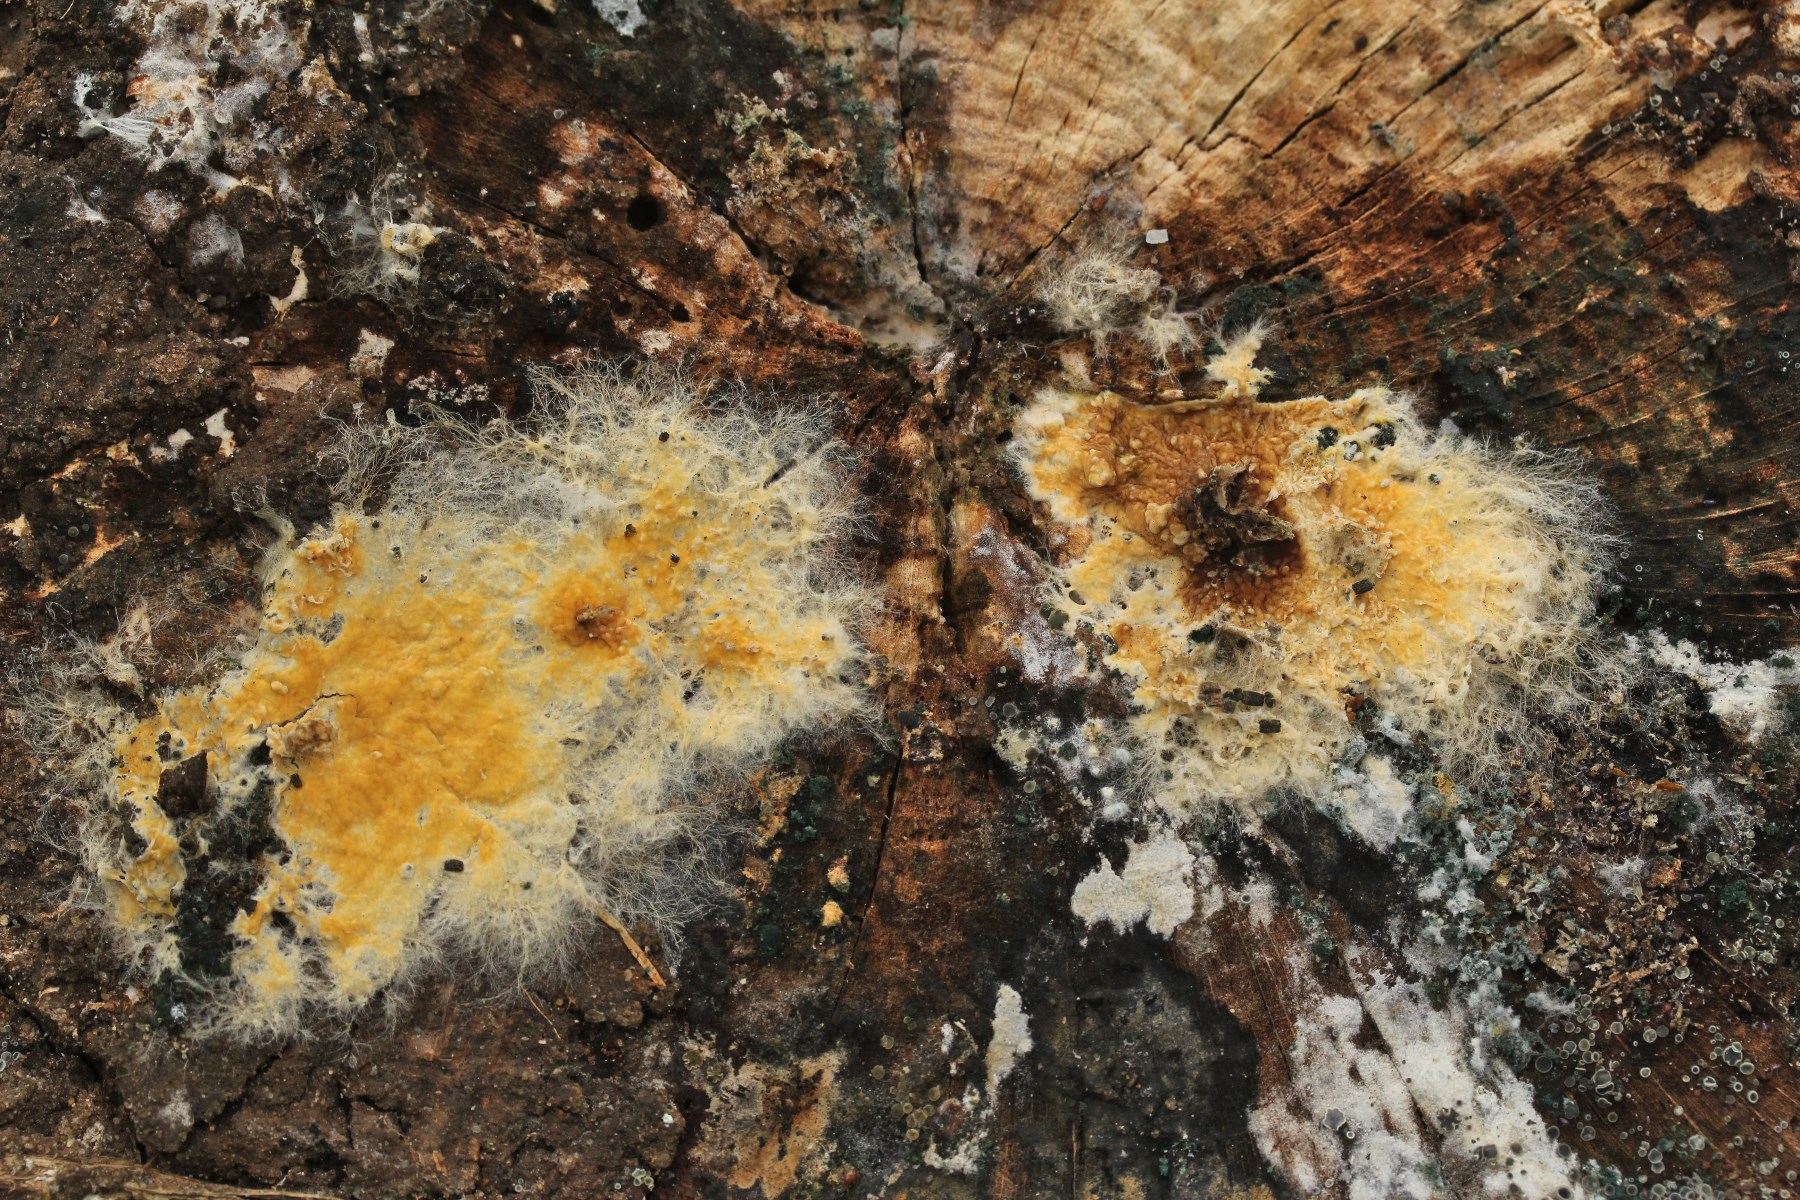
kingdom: Fungi
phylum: Basidiomycota
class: Agaricomycetes
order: Agaricales
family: Physalacriaceae
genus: Cylindrobasidium
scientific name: Cylindrobasidium evolvens
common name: sprækkehinde
